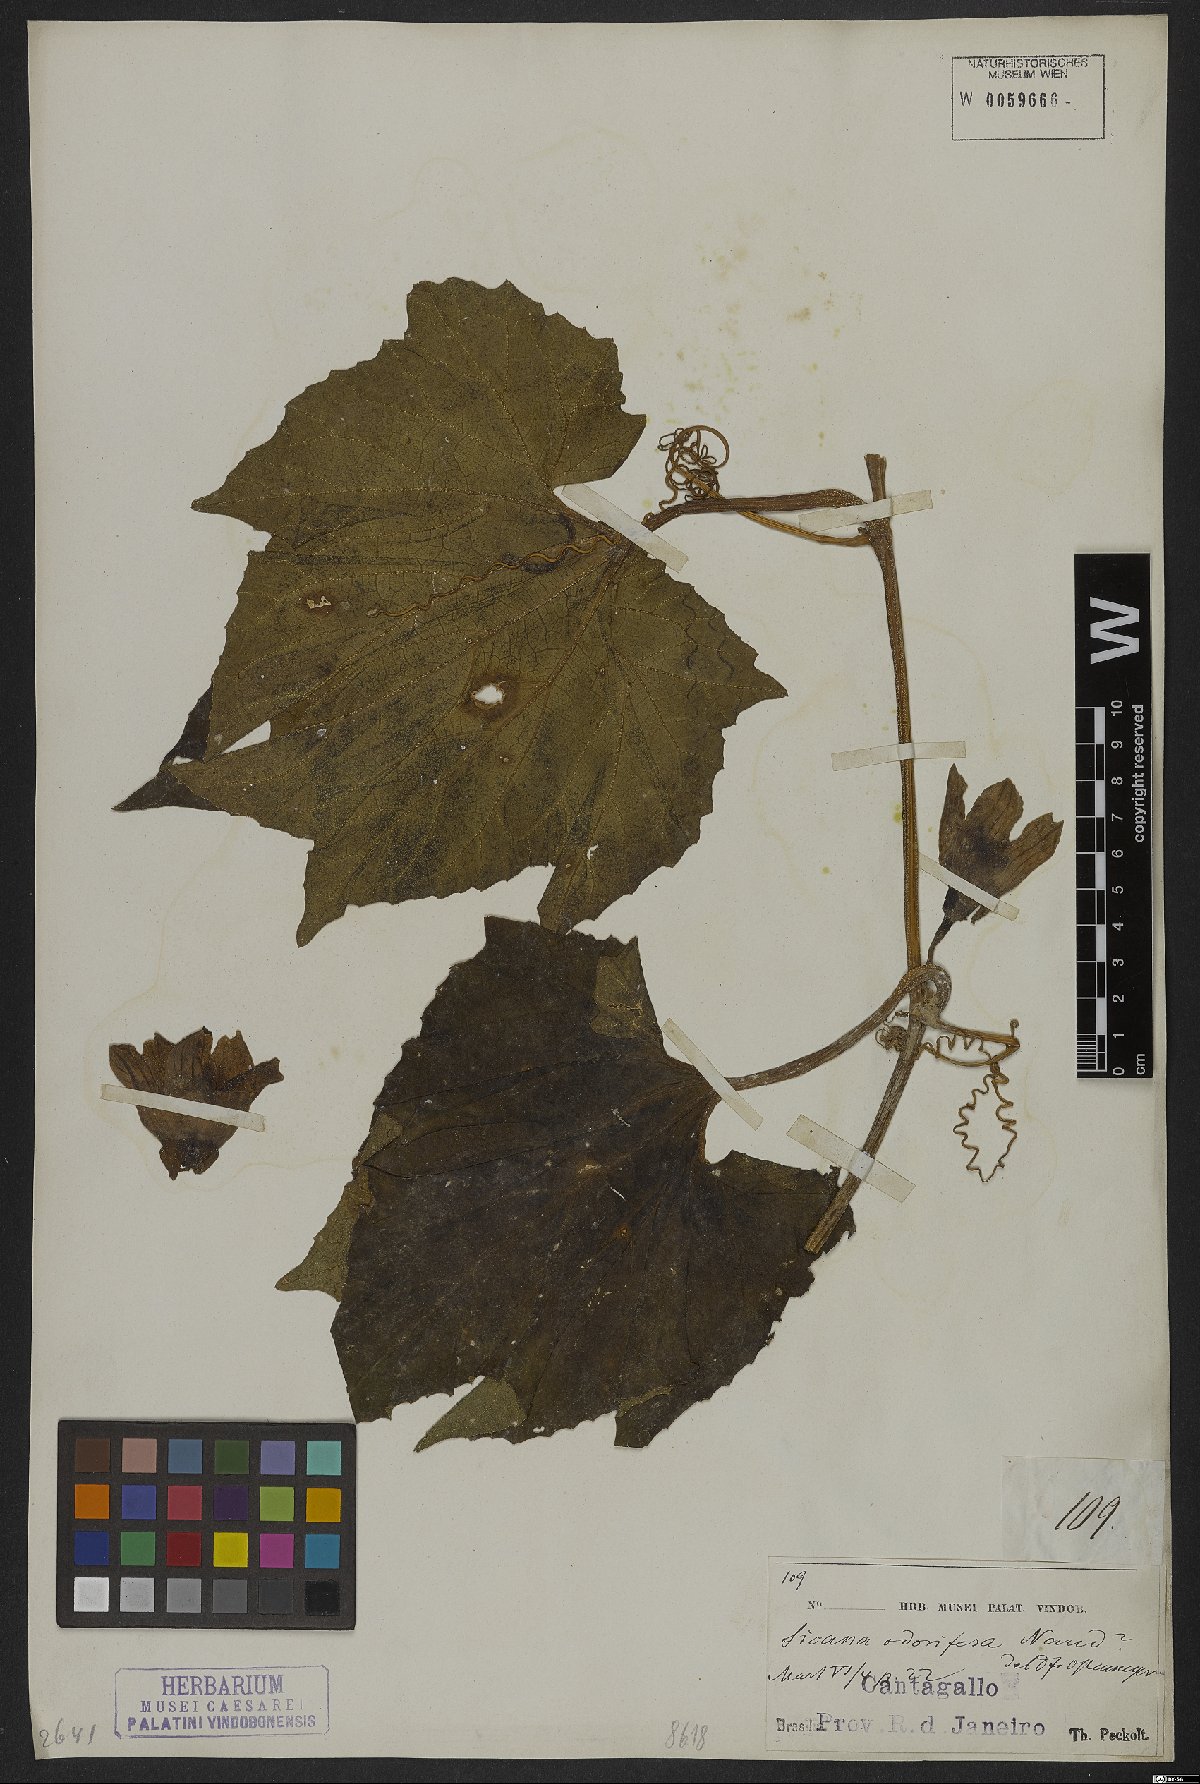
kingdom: Plantae
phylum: Tracheophyta
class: Magnoliopsida
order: Cucurbitales
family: Cucurbitaceae
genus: Sicana
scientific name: Sicana odorifera
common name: Casabanana
